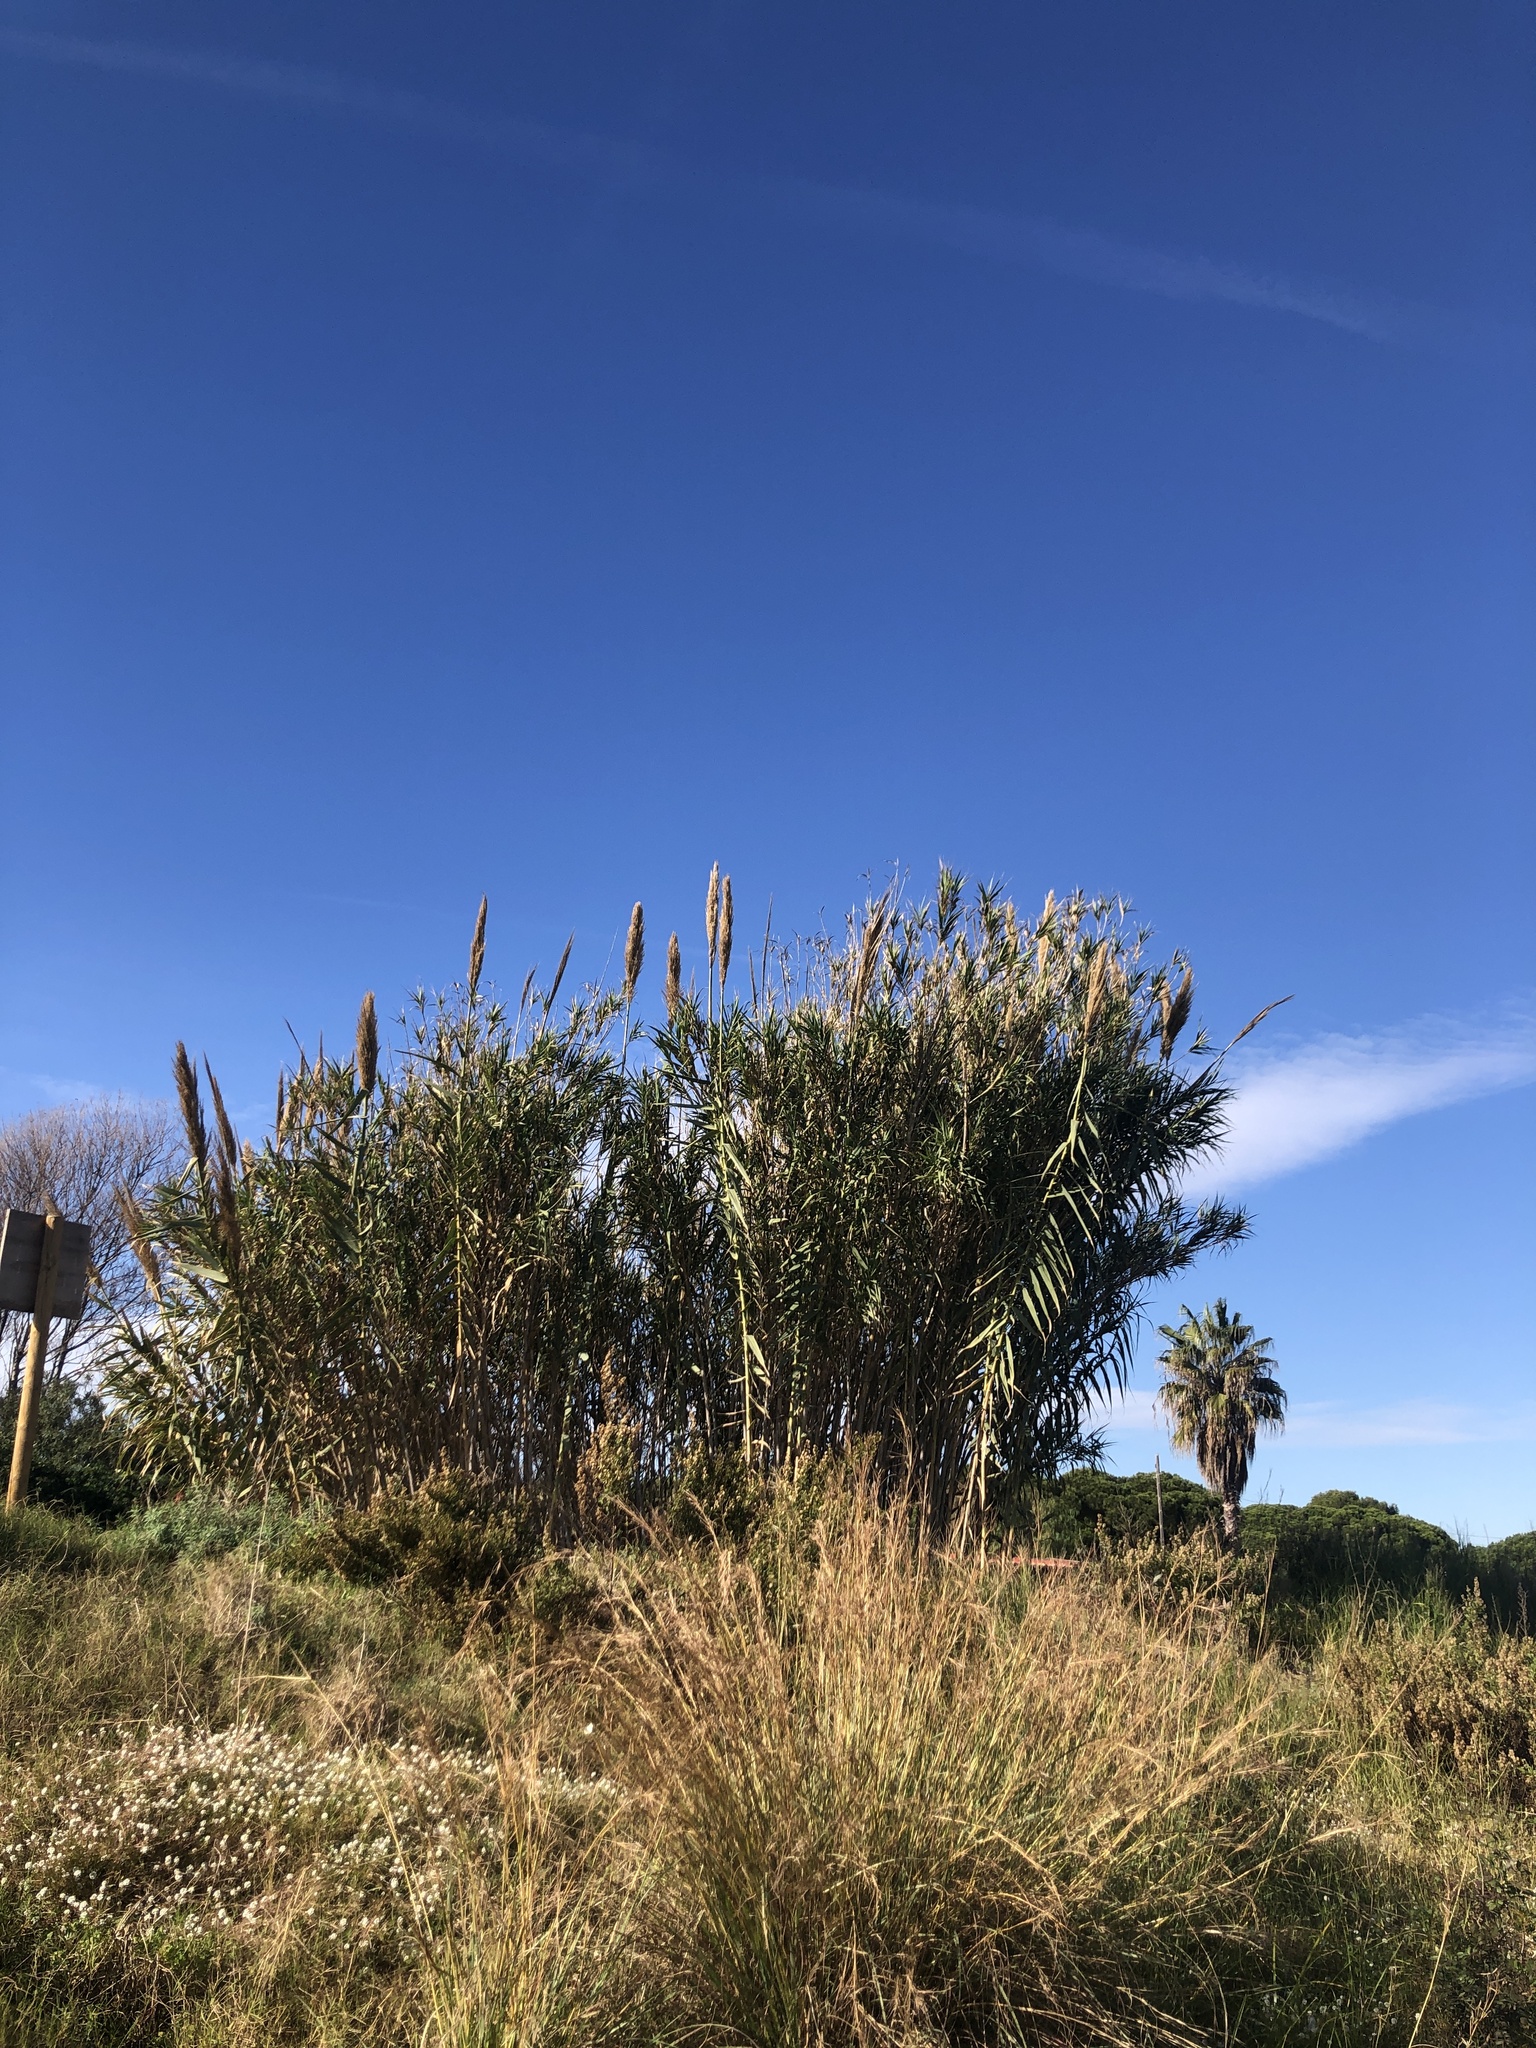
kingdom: Plantae
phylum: Tracheophyta
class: Liliopsida
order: Poales
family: Poaceae
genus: Arundo
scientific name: Arundo donax
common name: Giant reed
